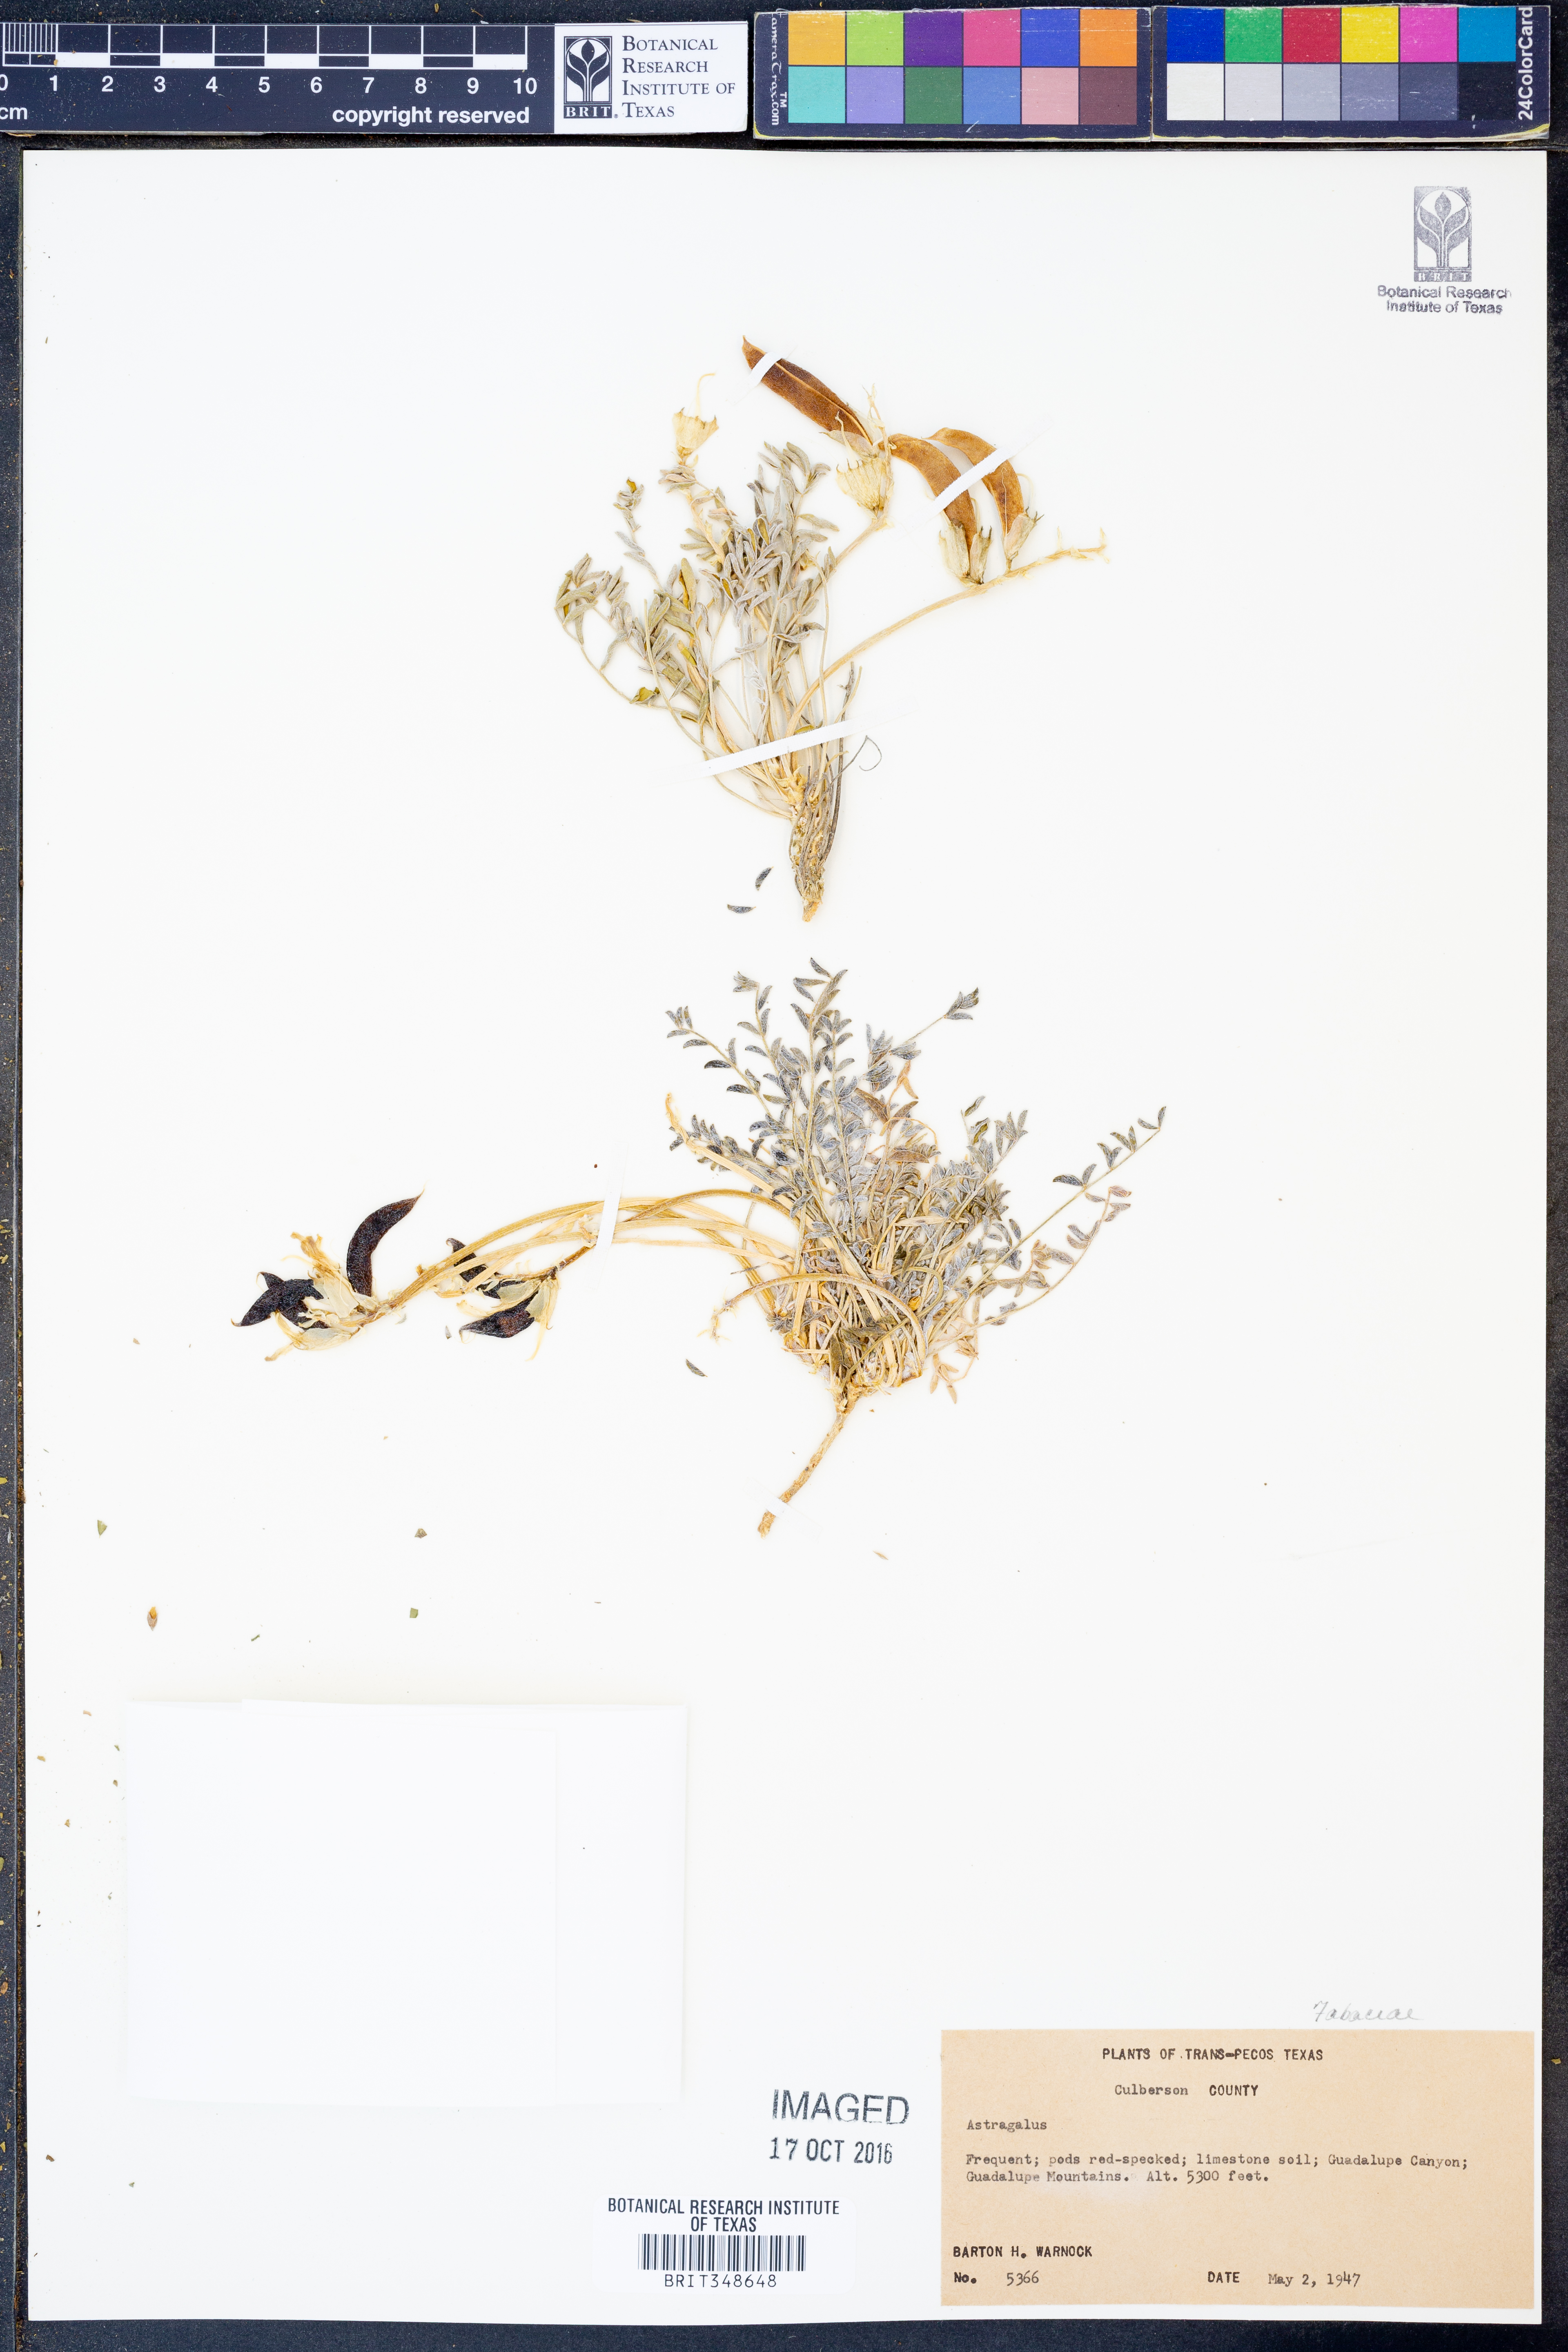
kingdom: Plantae
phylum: Tracheophyta
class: Magnoliopsida
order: Fabales
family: Fabaceae
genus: Astragalus
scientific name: Astragalus
